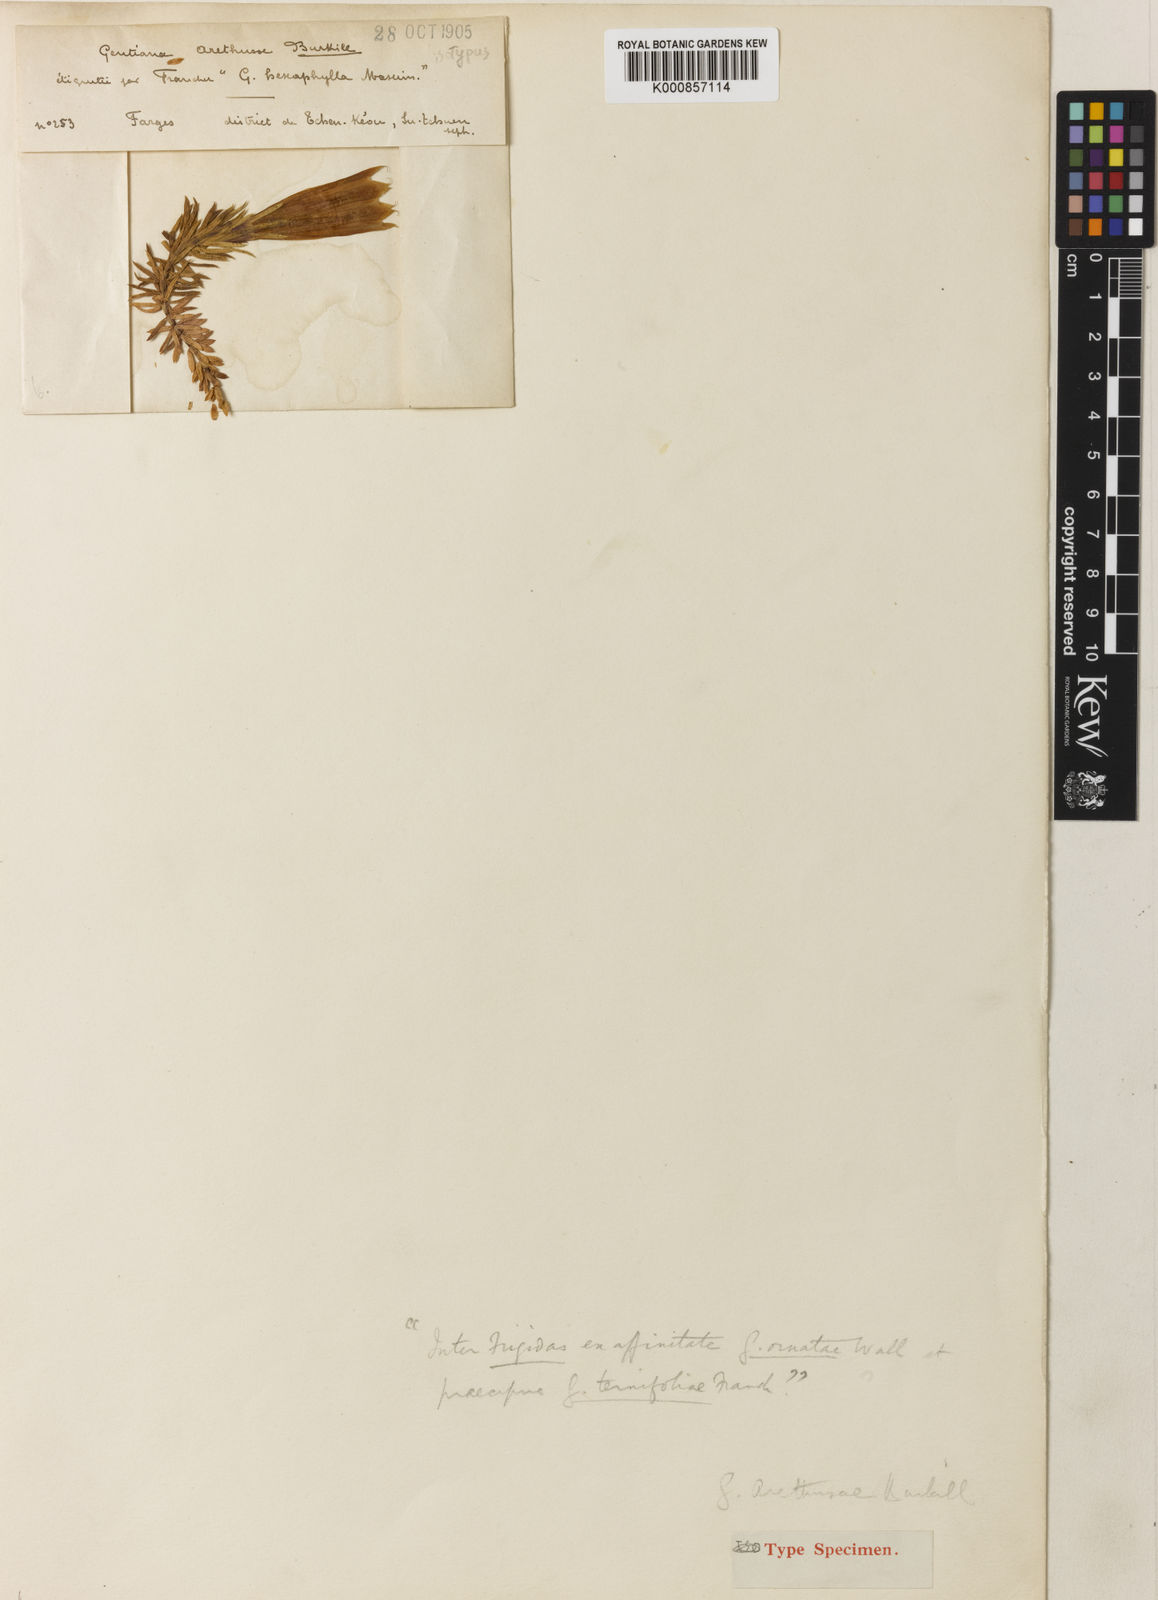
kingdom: Plantae
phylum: Tracheophyta
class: Magnoliopsida
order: Gentianales
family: Gentianaceae
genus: Gentiana
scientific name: Gentiana arethusae
